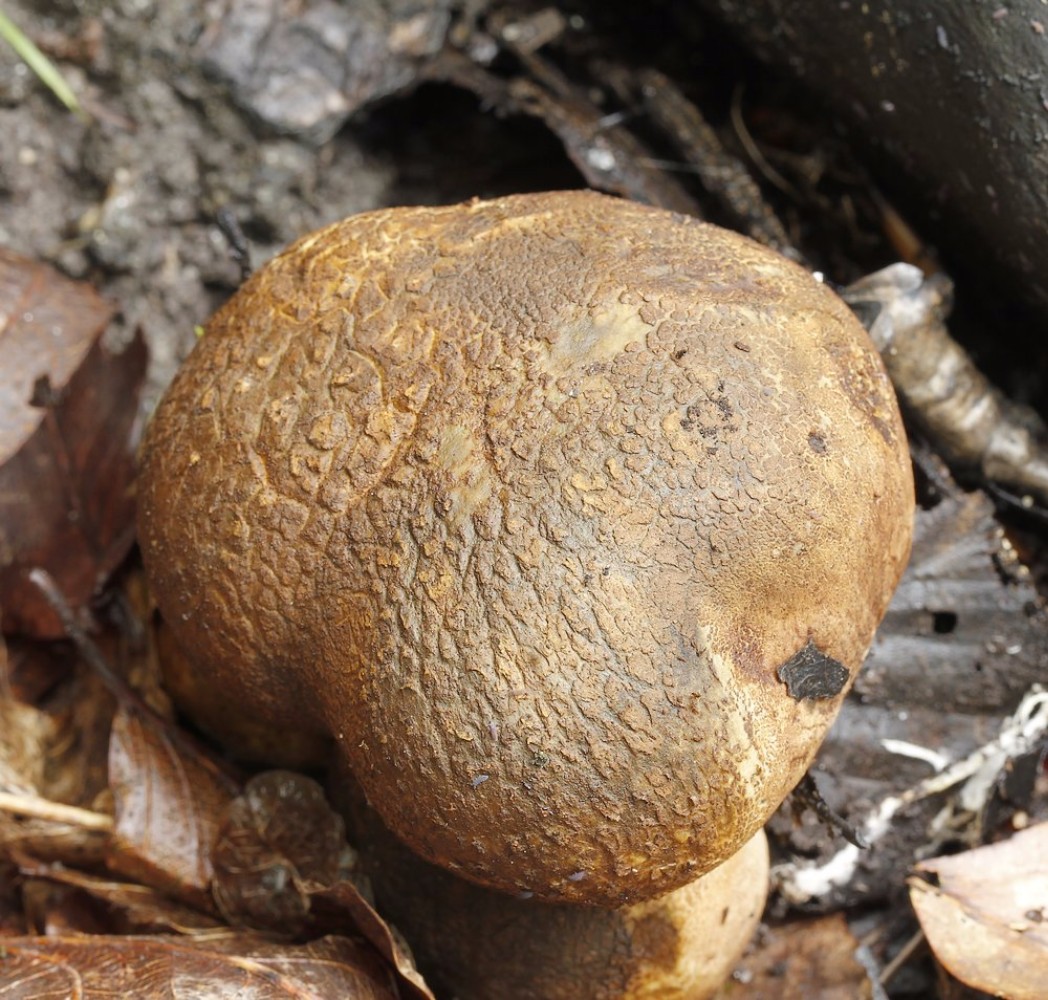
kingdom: Fungi
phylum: Basidiomycota
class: Agaricomycetes
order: Boletales
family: Sclerodermataceae
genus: Scleroderma
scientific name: Scleroderma
